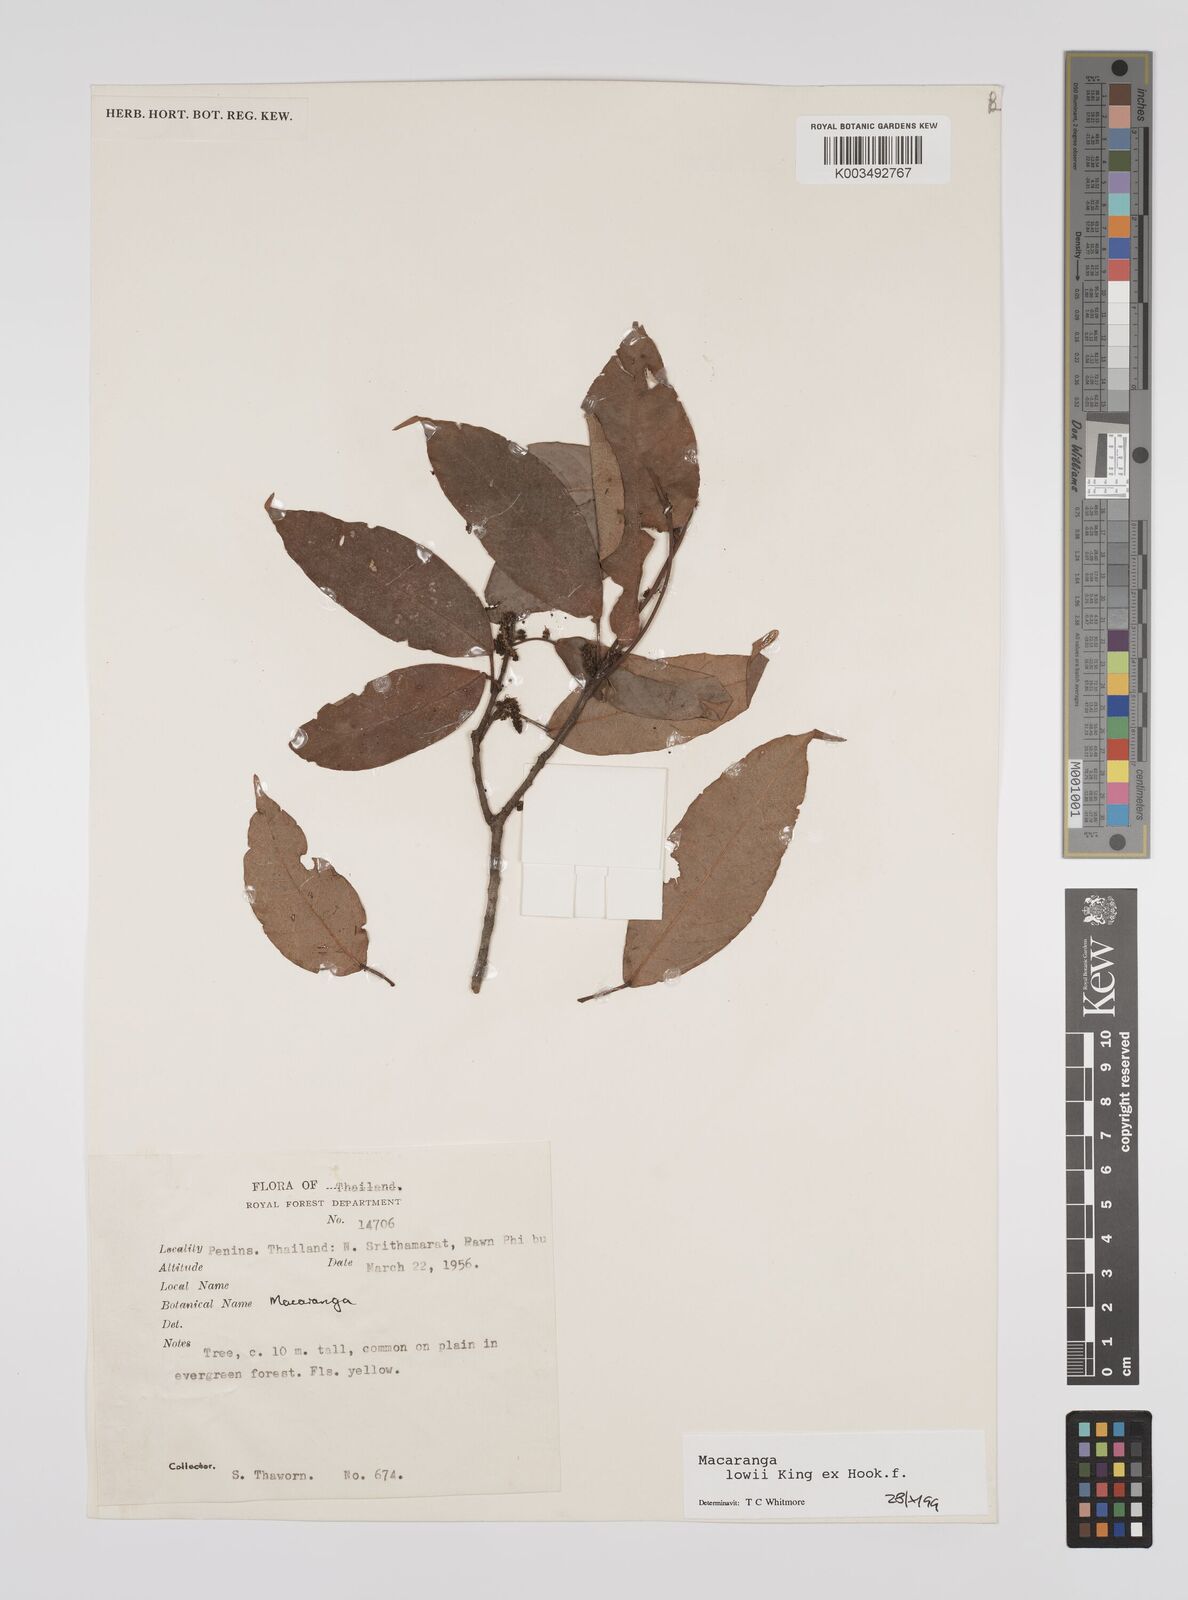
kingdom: Plantae
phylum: Tracheophyta
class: Magnoliopsida
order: Malpighiales
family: Euphorbiaceae
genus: Macaranga
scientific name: Macaranga lowii
